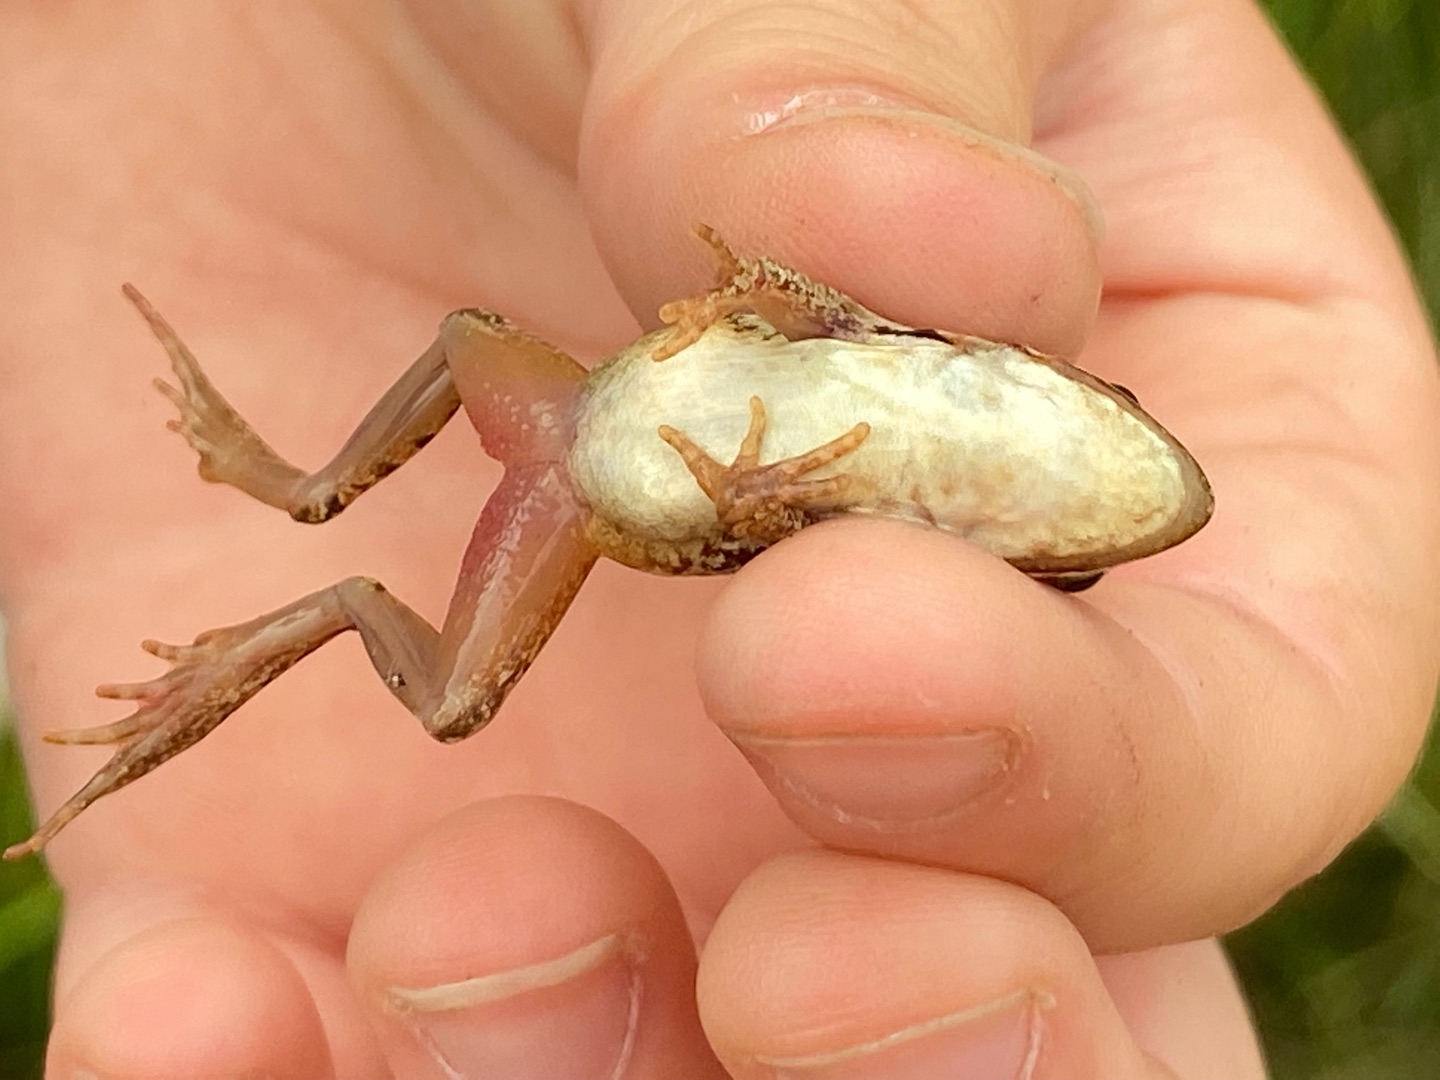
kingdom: Animalia
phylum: Chordata
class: Amphibia
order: Anura
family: Ranidae
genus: Rana
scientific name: Rana arvalis
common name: Spidssnudet frø
